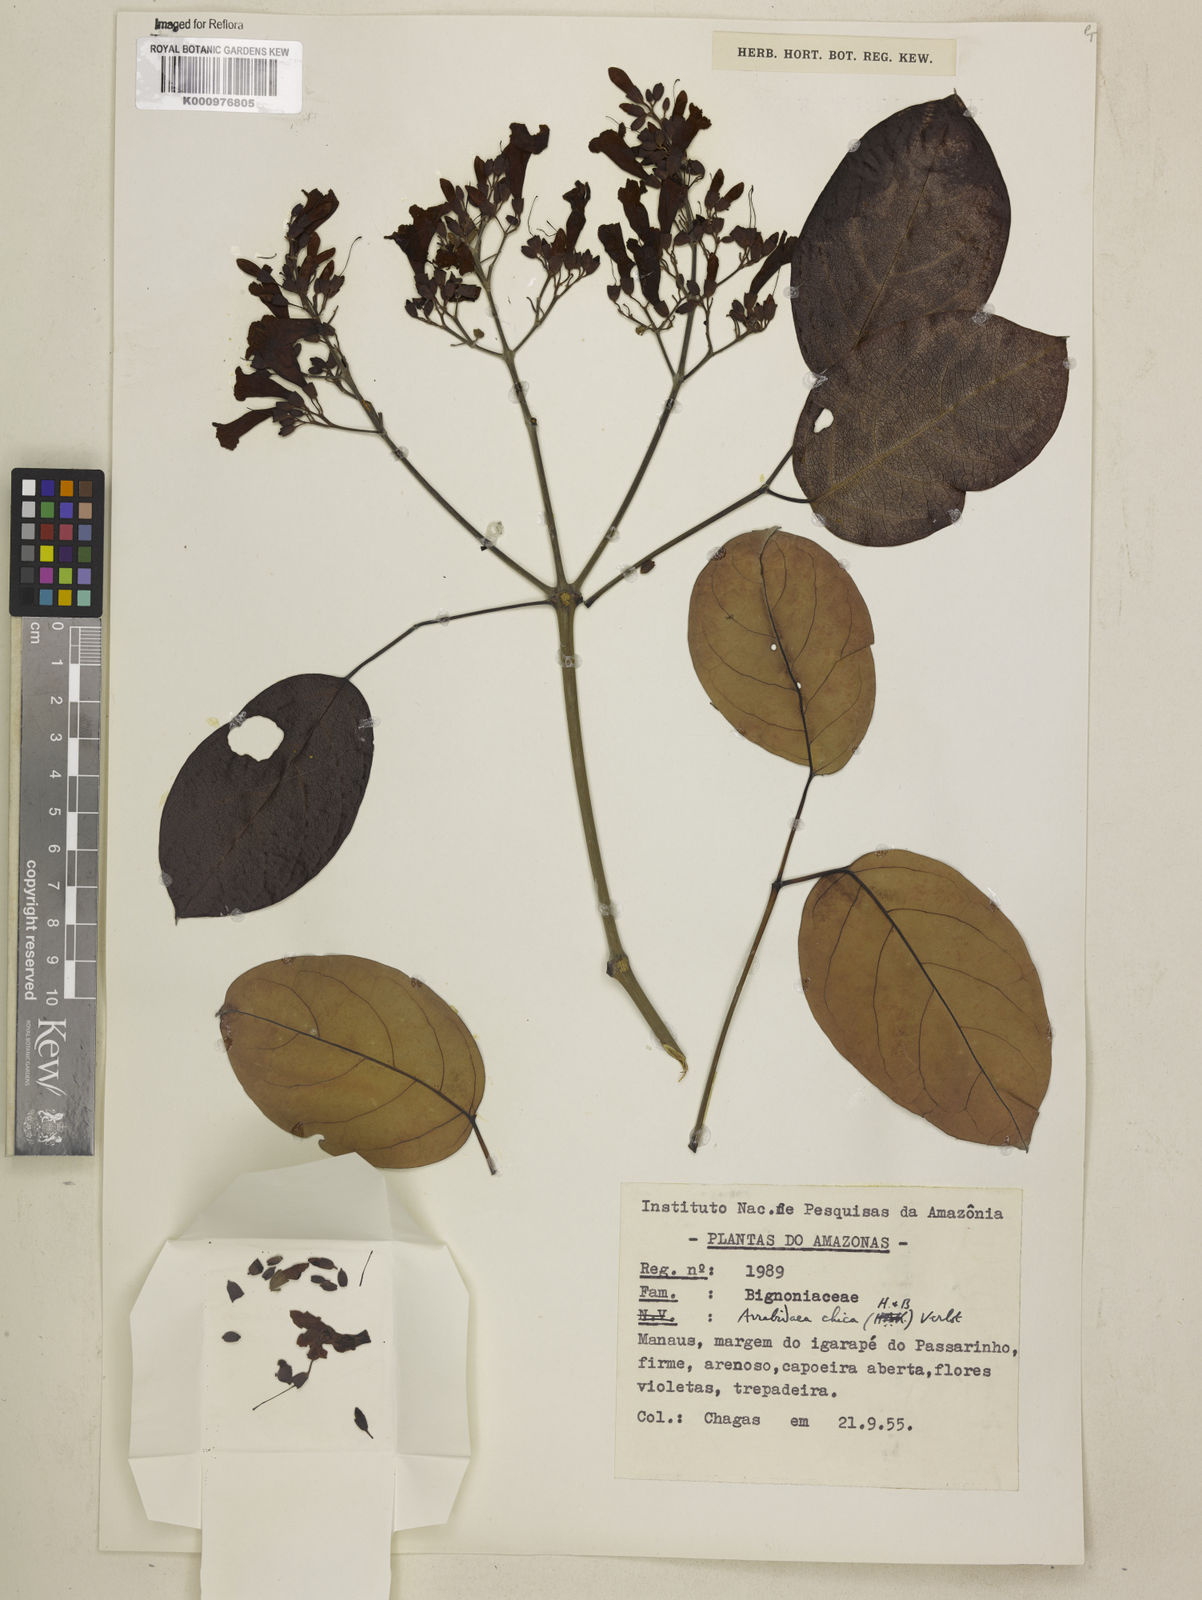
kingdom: Plantae
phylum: Tracheophyta
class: Magnoliopsida
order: Lamiales
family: Bignoniaceae
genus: Fridericia
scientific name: Fridericia chica
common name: Cricketvine
